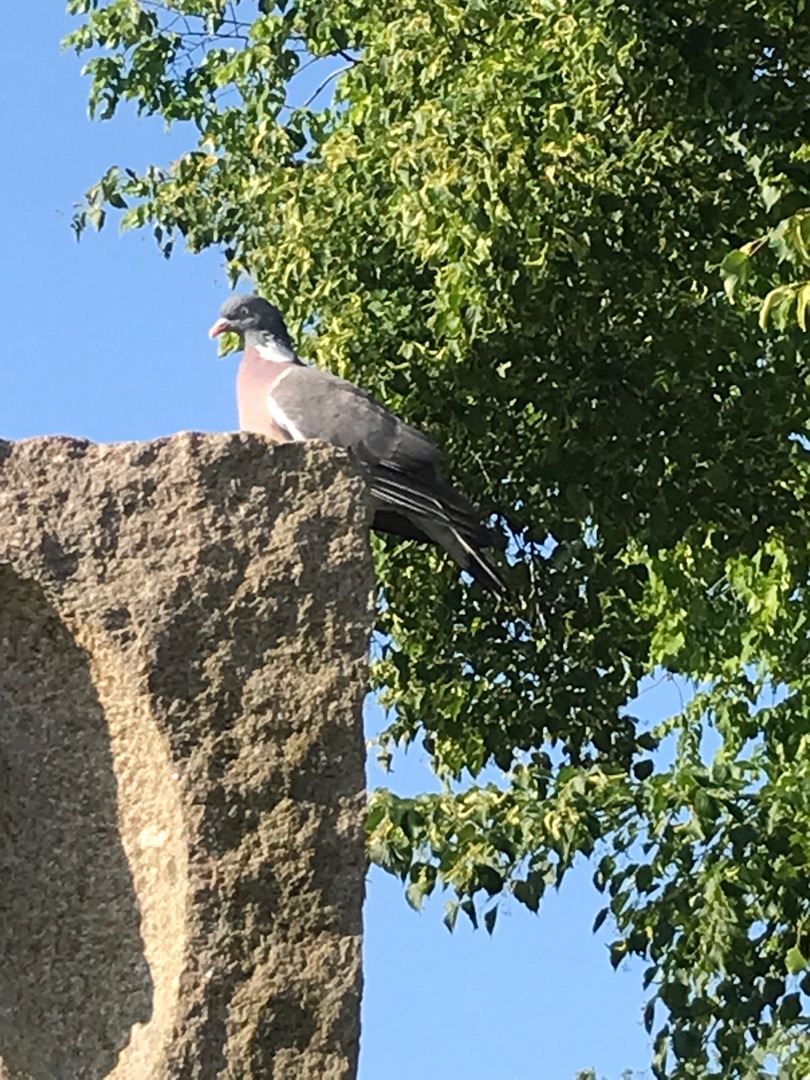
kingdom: Animalia
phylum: Chordata
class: Aves
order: Columbiformes
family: Columbidae
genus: Columba
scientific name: Columba palumbus
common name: Ringdue
